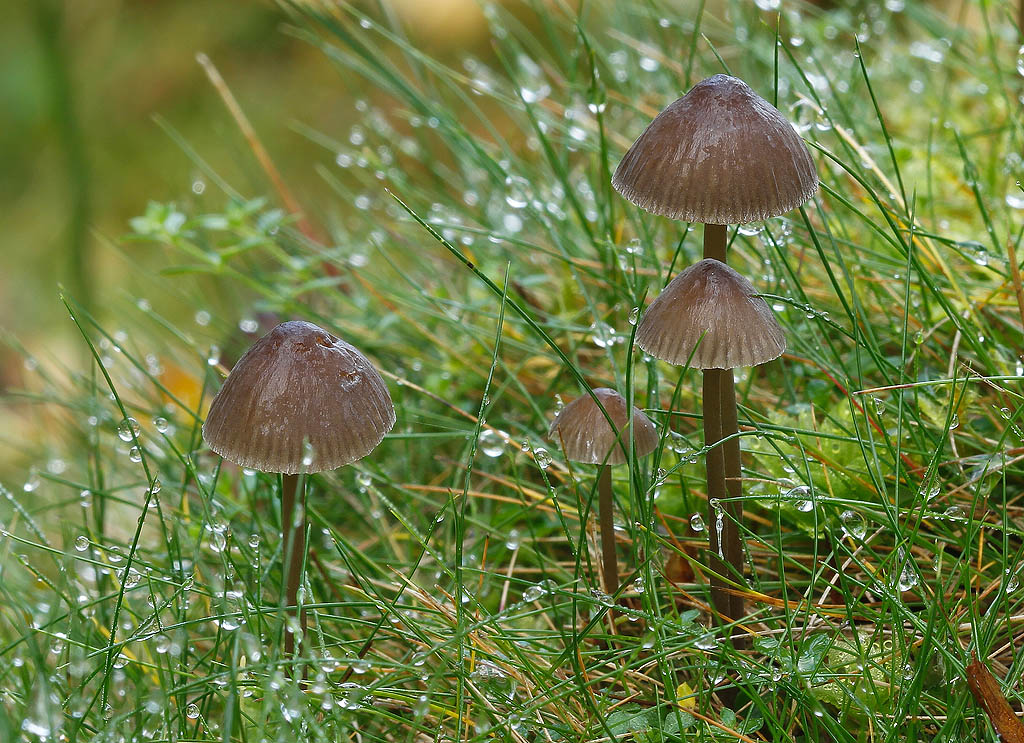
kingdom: Fungi
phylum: Basidiomycota
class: Agaricomycetes
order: Agaricales
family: Mycenaceae
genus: Mycena
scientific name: Mycena aetites
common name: plæne-huesvamp
